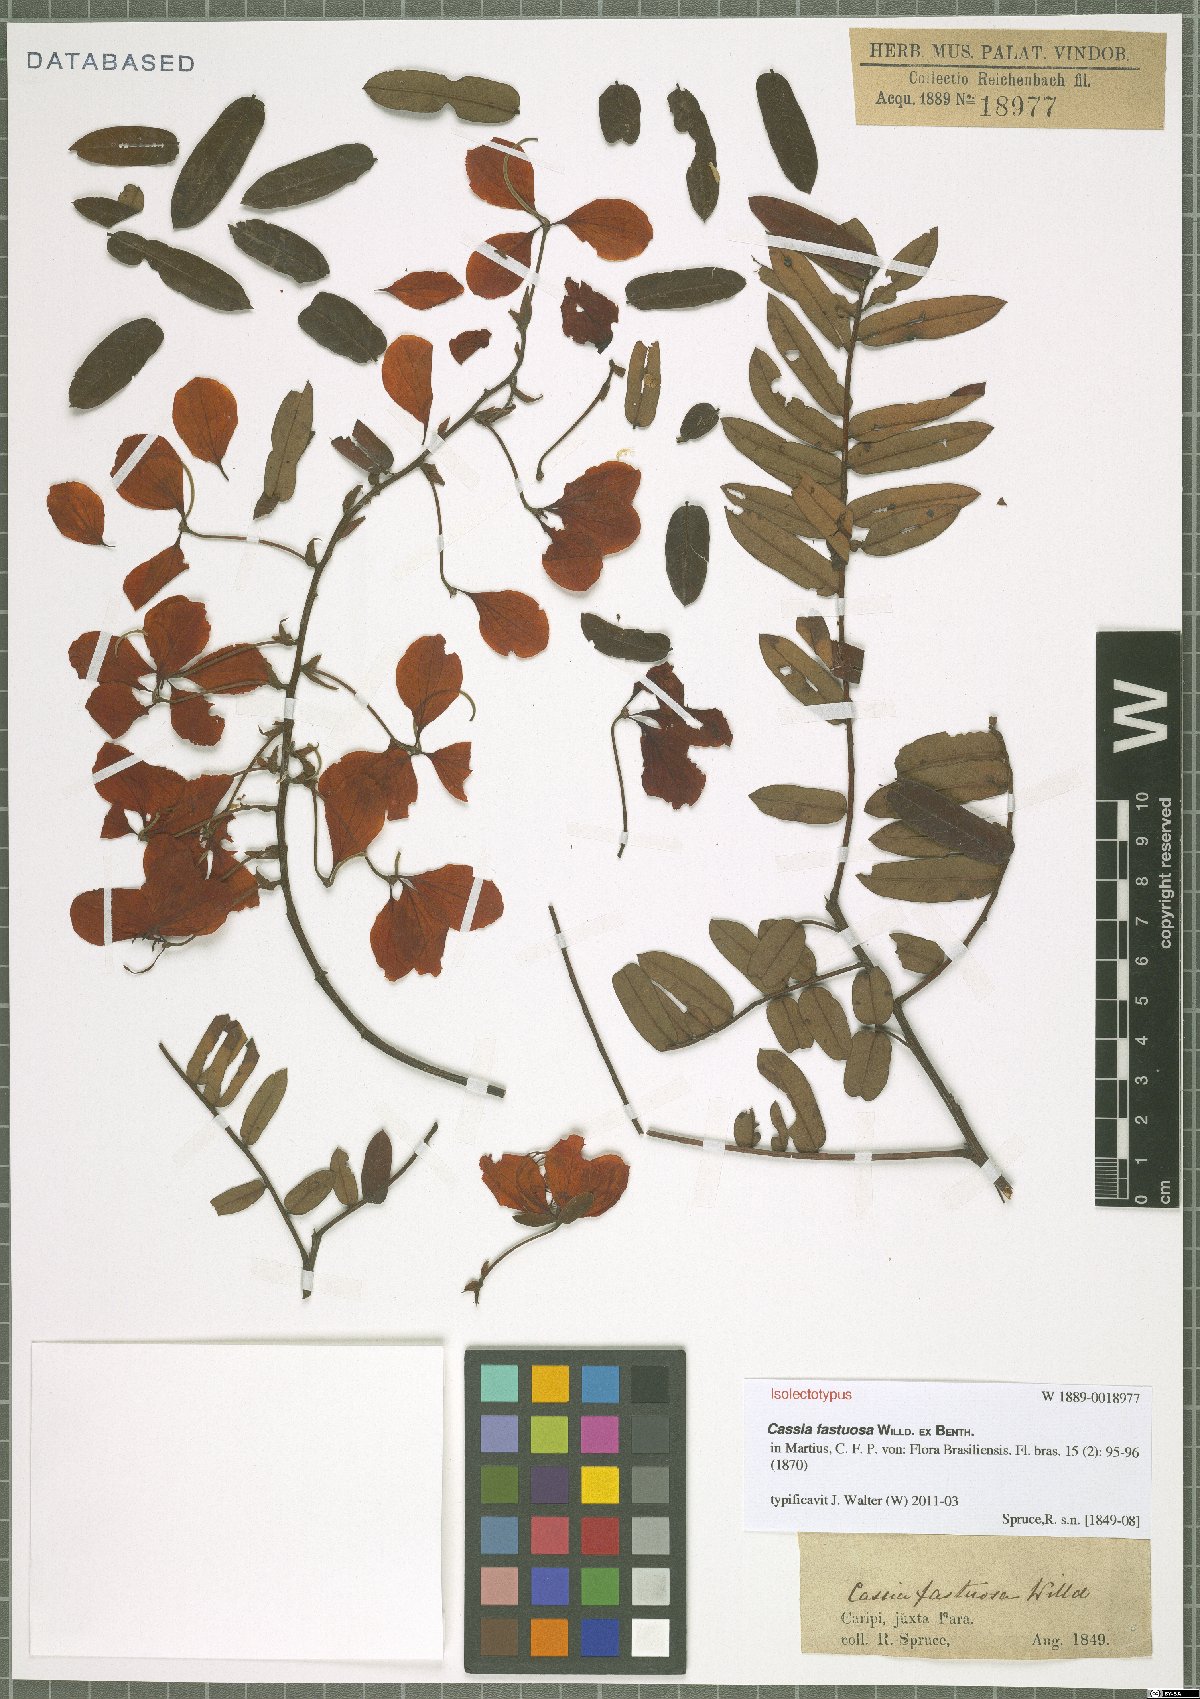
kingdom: Plantae
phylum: Tracheophyta
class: Magnoliopsida
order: Fabales
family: Fabaceae
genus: Cassia
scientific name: Cassia fastuosa
